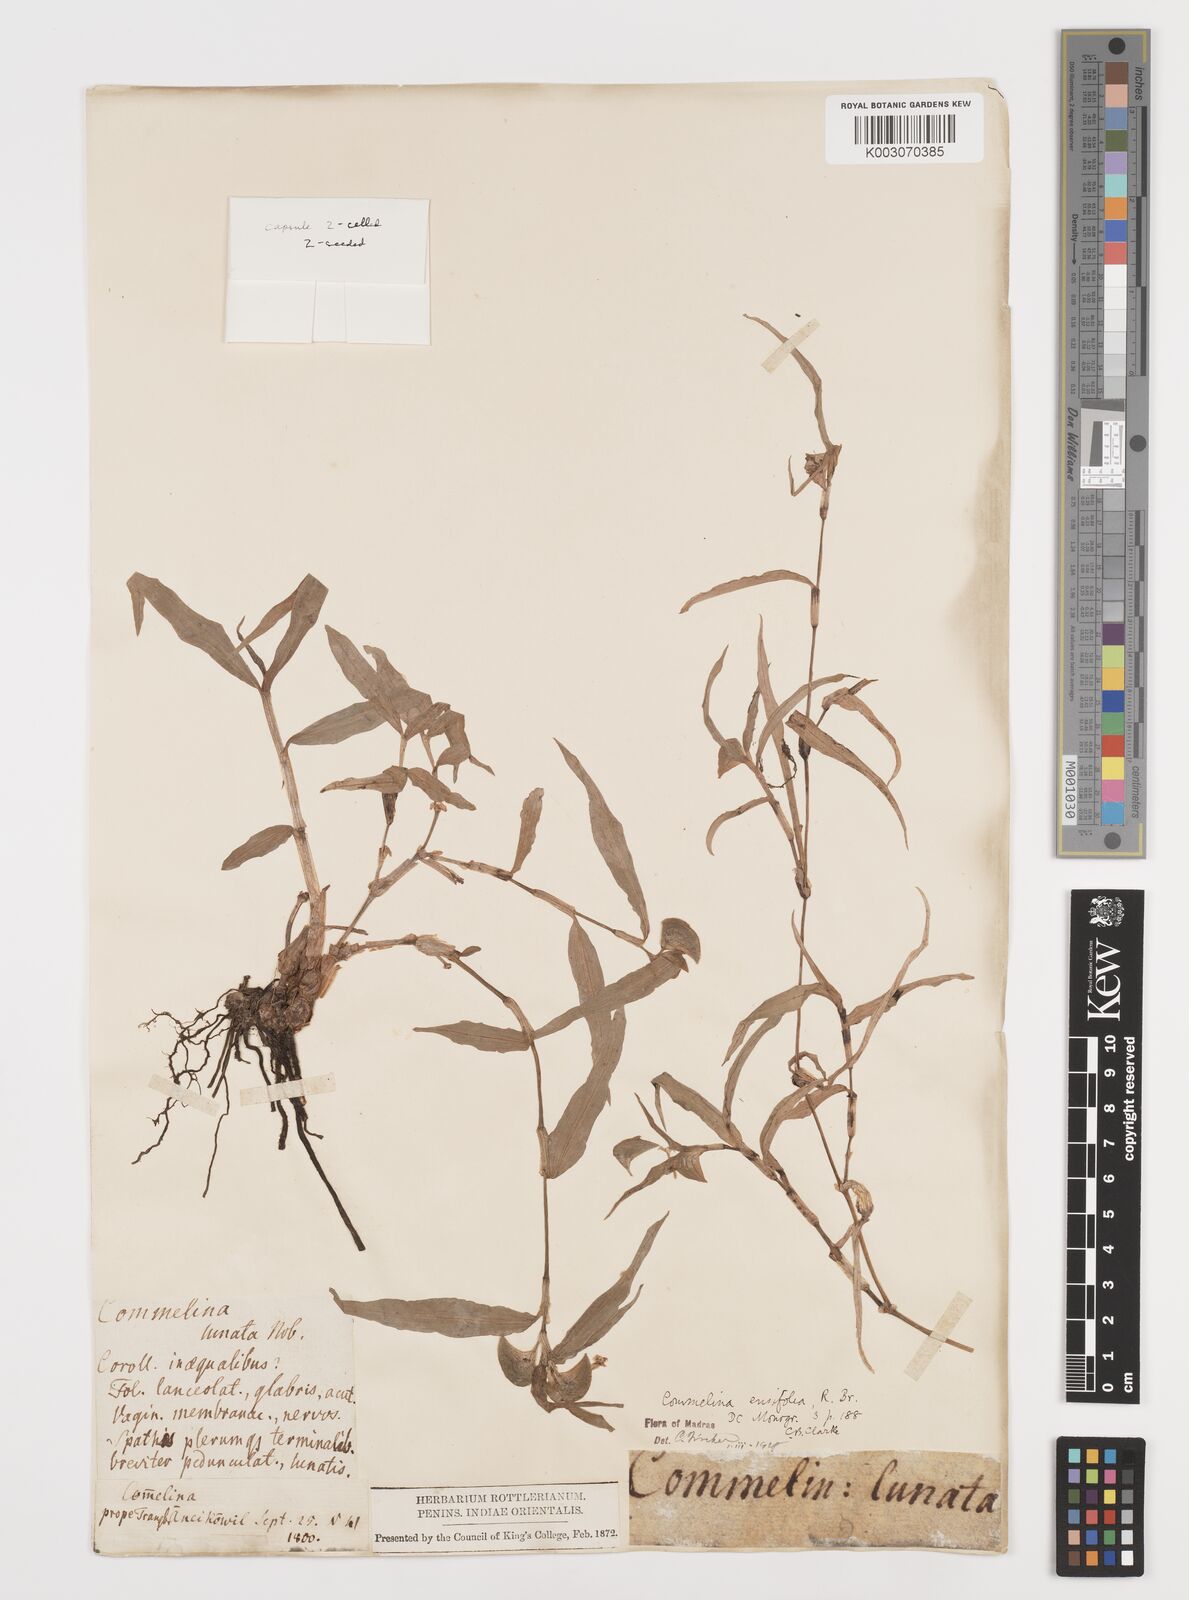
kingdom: Plantae
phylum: Tracheophyta
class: Liliopsida
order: Commelinales
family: Commelinaceae
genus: Commelina
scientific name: Commelina ensifolia
